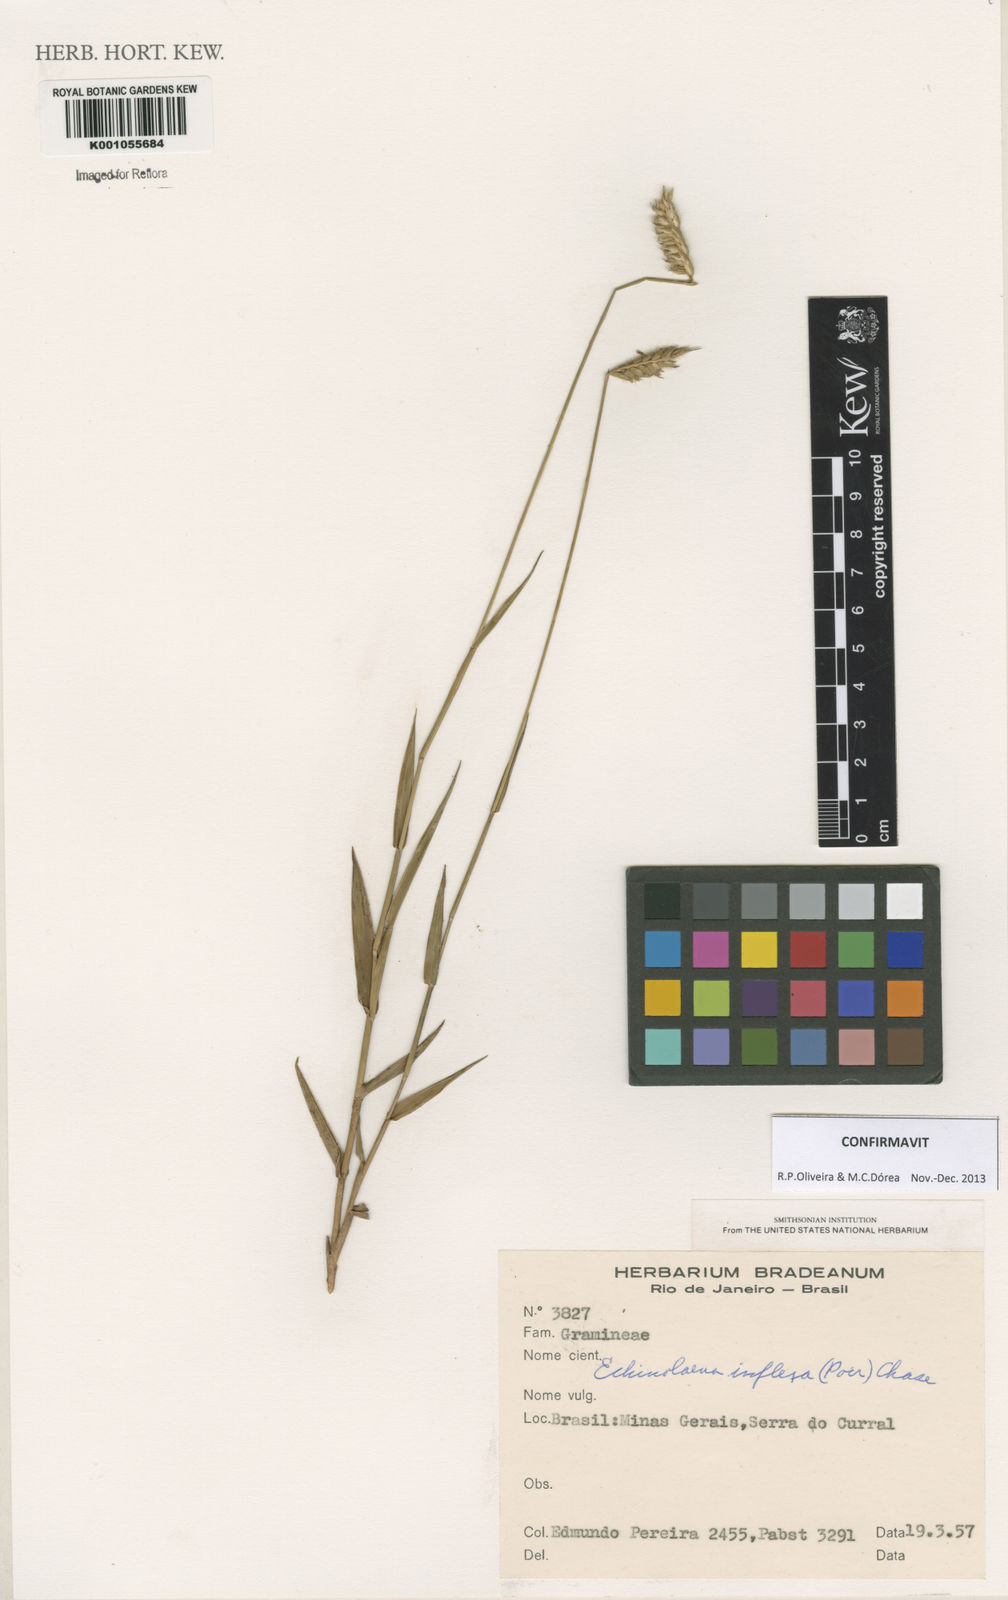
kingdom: Plantae
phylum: Tracheophyta
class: Liliopsida
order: Poales
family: Poaceae
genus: Echinolaena
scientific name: Echinolaena inflexa
